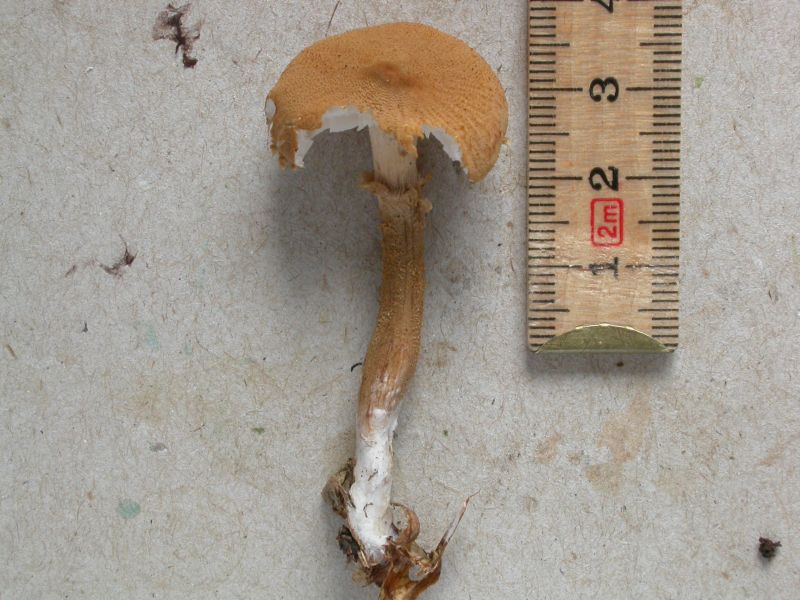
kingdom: Fungi
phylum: Basidiomycota
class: Agaricomycetes
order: Agaricales
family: Tricholomataceae
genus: Cystoderma
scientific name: Cystoderma amianthinum
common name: okkergul grynhat
